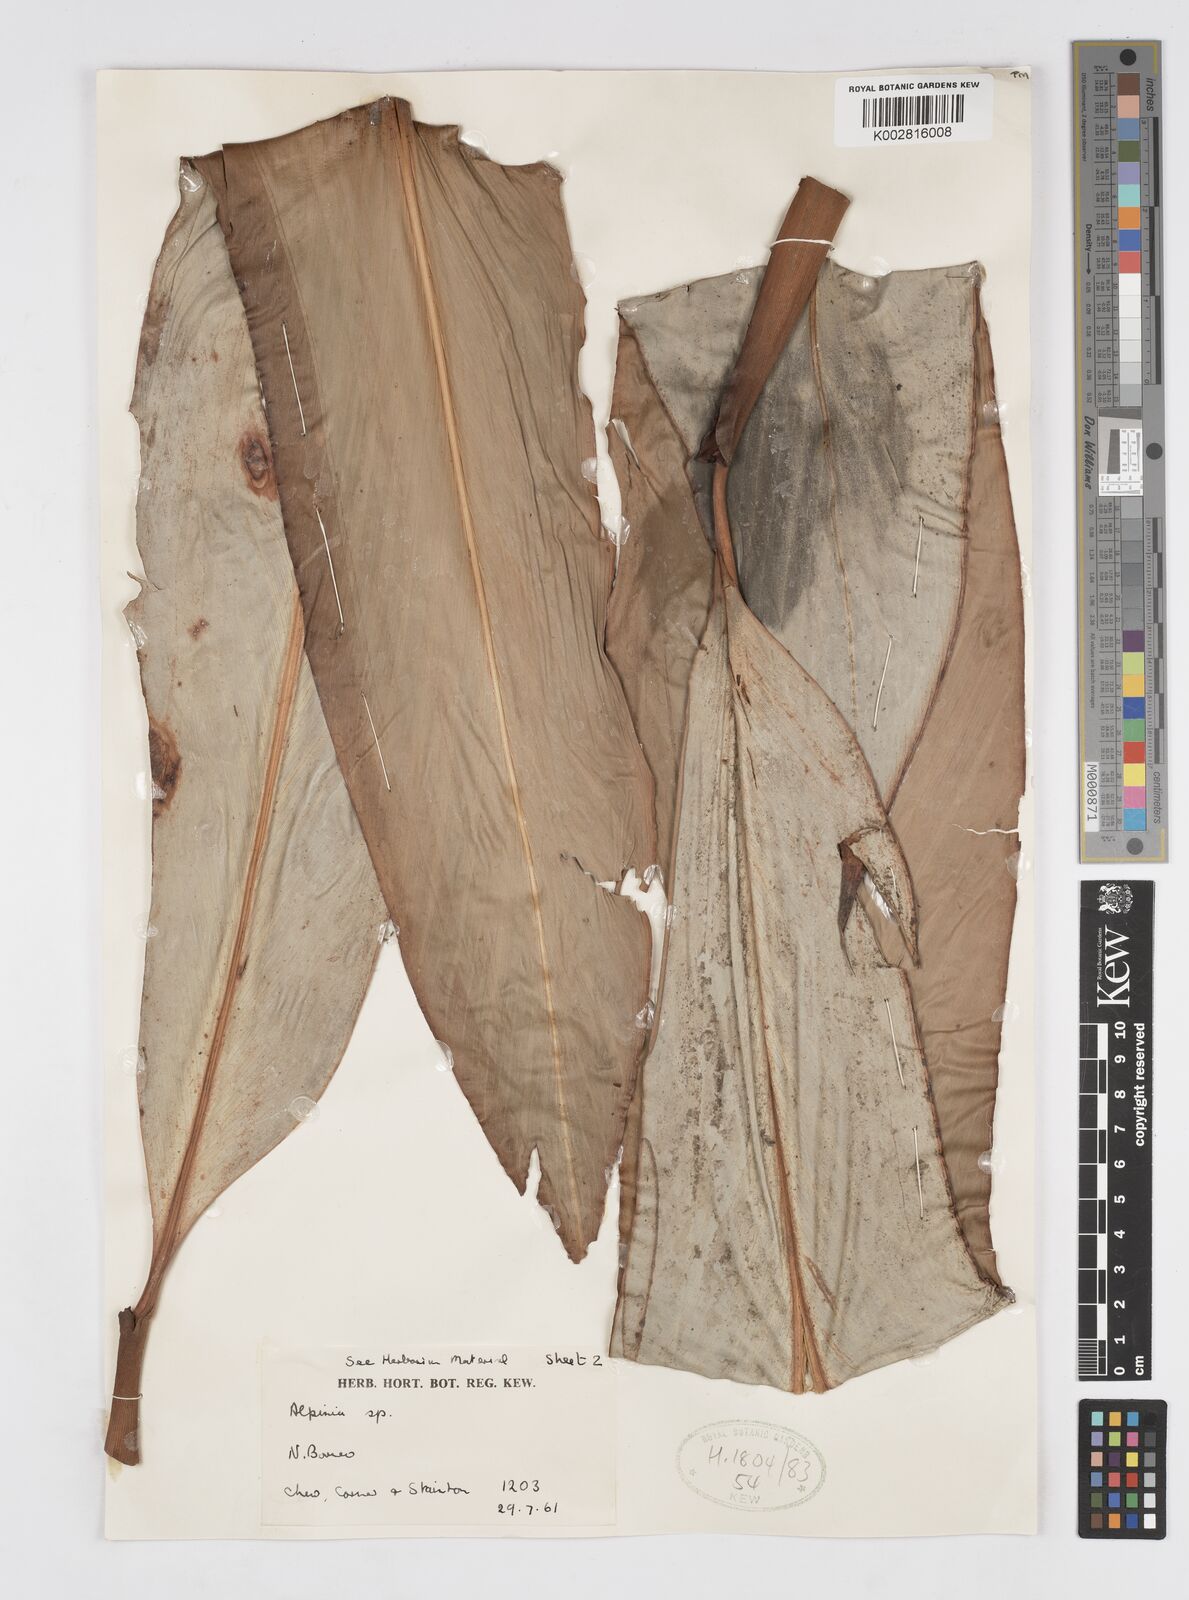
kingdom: Plantae
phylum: Tracheophyta
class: Liliopsida
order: Zingiberales
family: Zingiberaceae
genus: Alpinia
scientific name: Alpinia nieuwenhuizii
